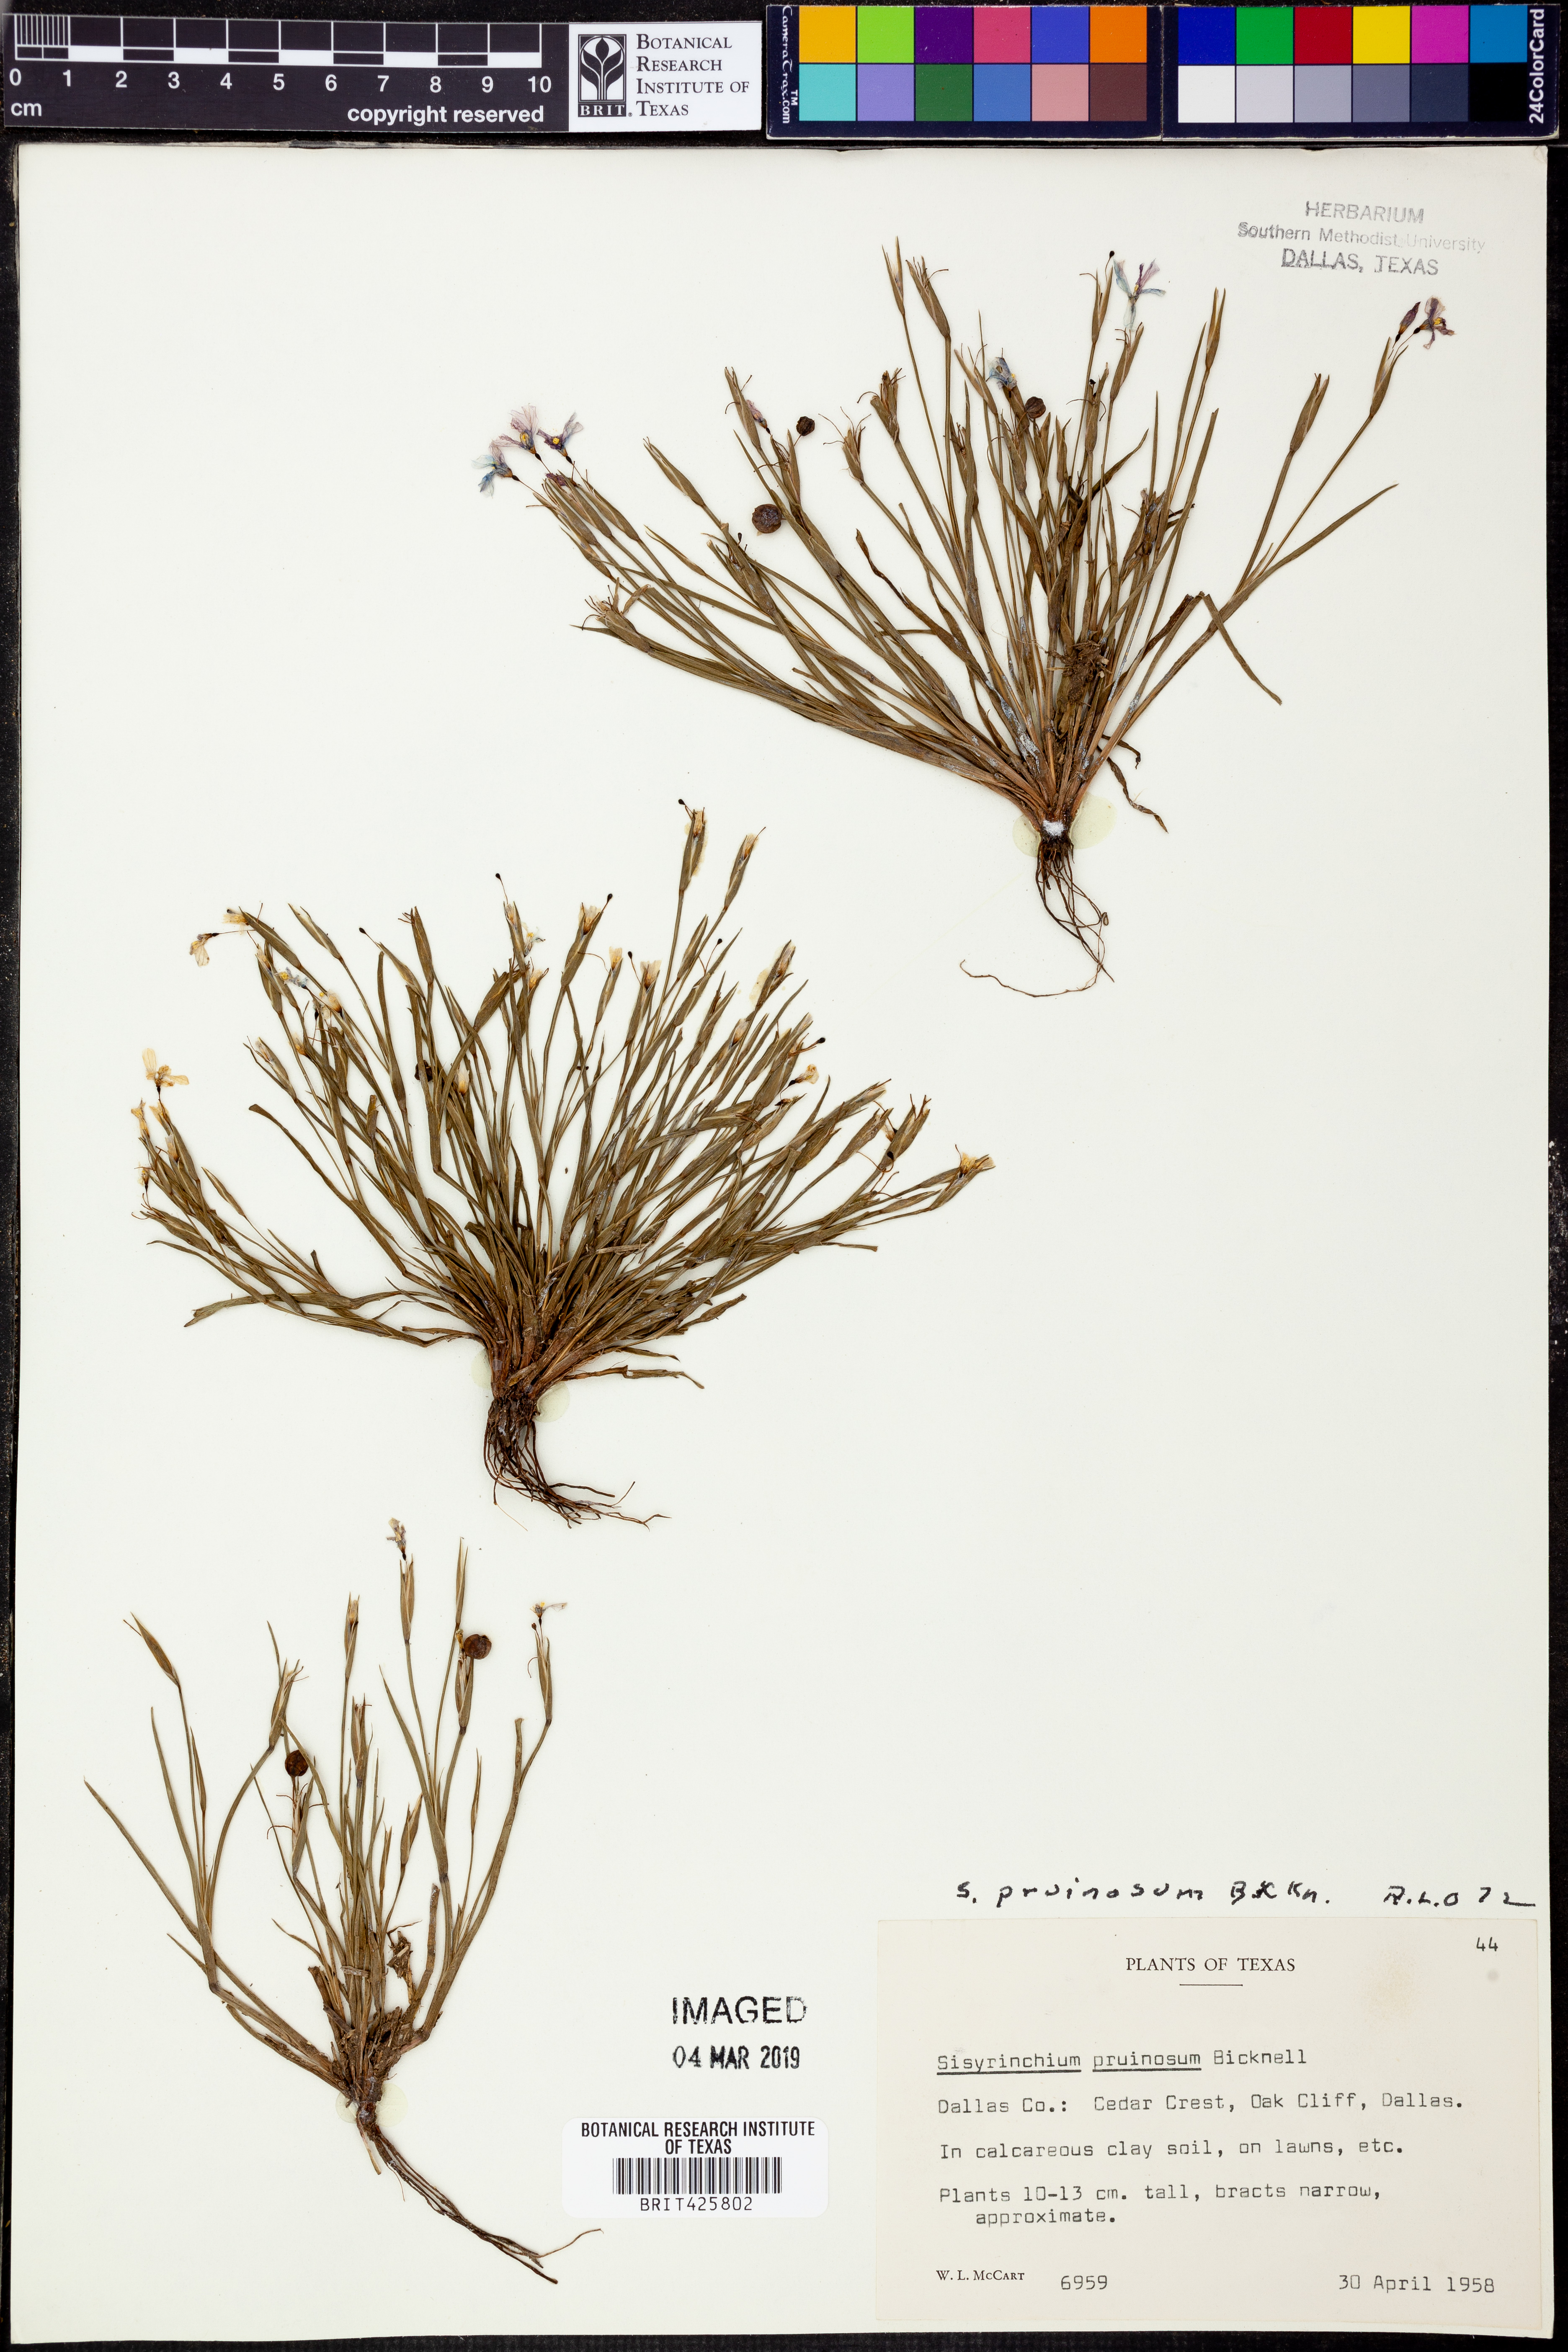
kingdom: Plantae
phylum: Tracheophyta
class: Liliopsida
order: Asparagales
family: Iridaceae
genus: Sisyrinchium
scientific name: Sisyrinchium pruinosum
